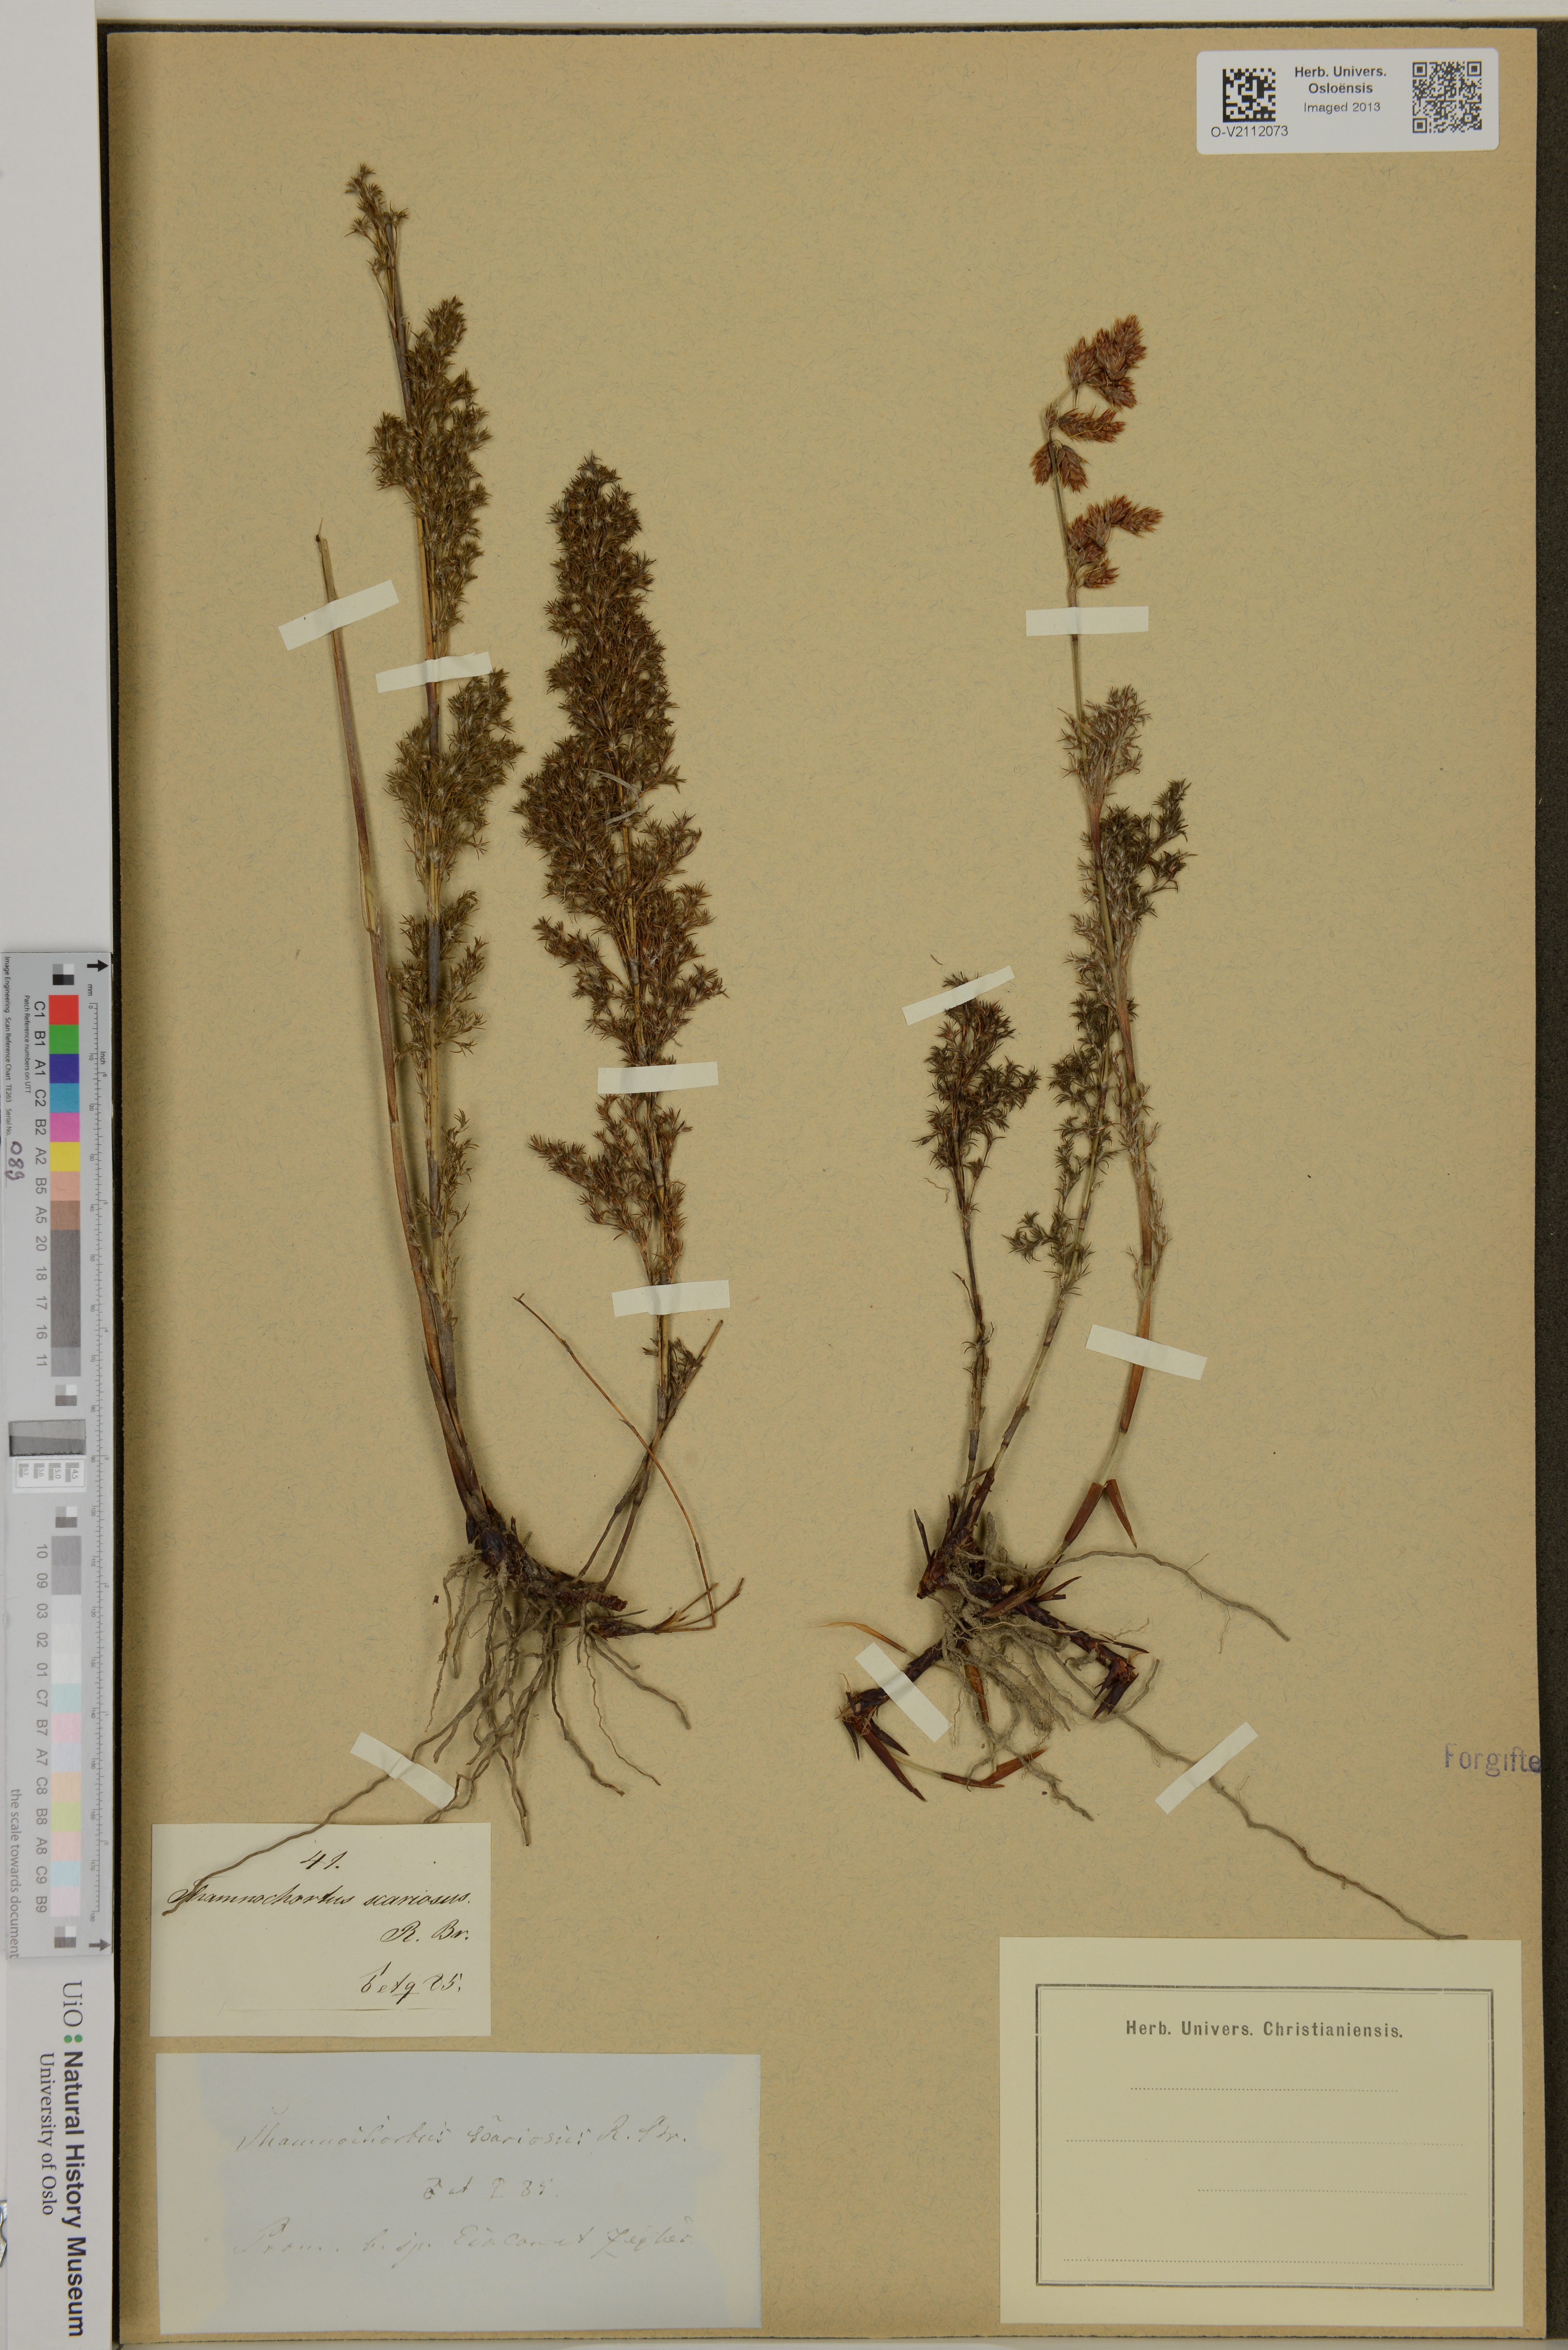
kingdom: Plantae
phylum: Tracheophyta
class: Liliopsida
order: Poales
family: Restionaceae
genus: Thamnochortus
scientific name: Thamnochortus fruticosus
